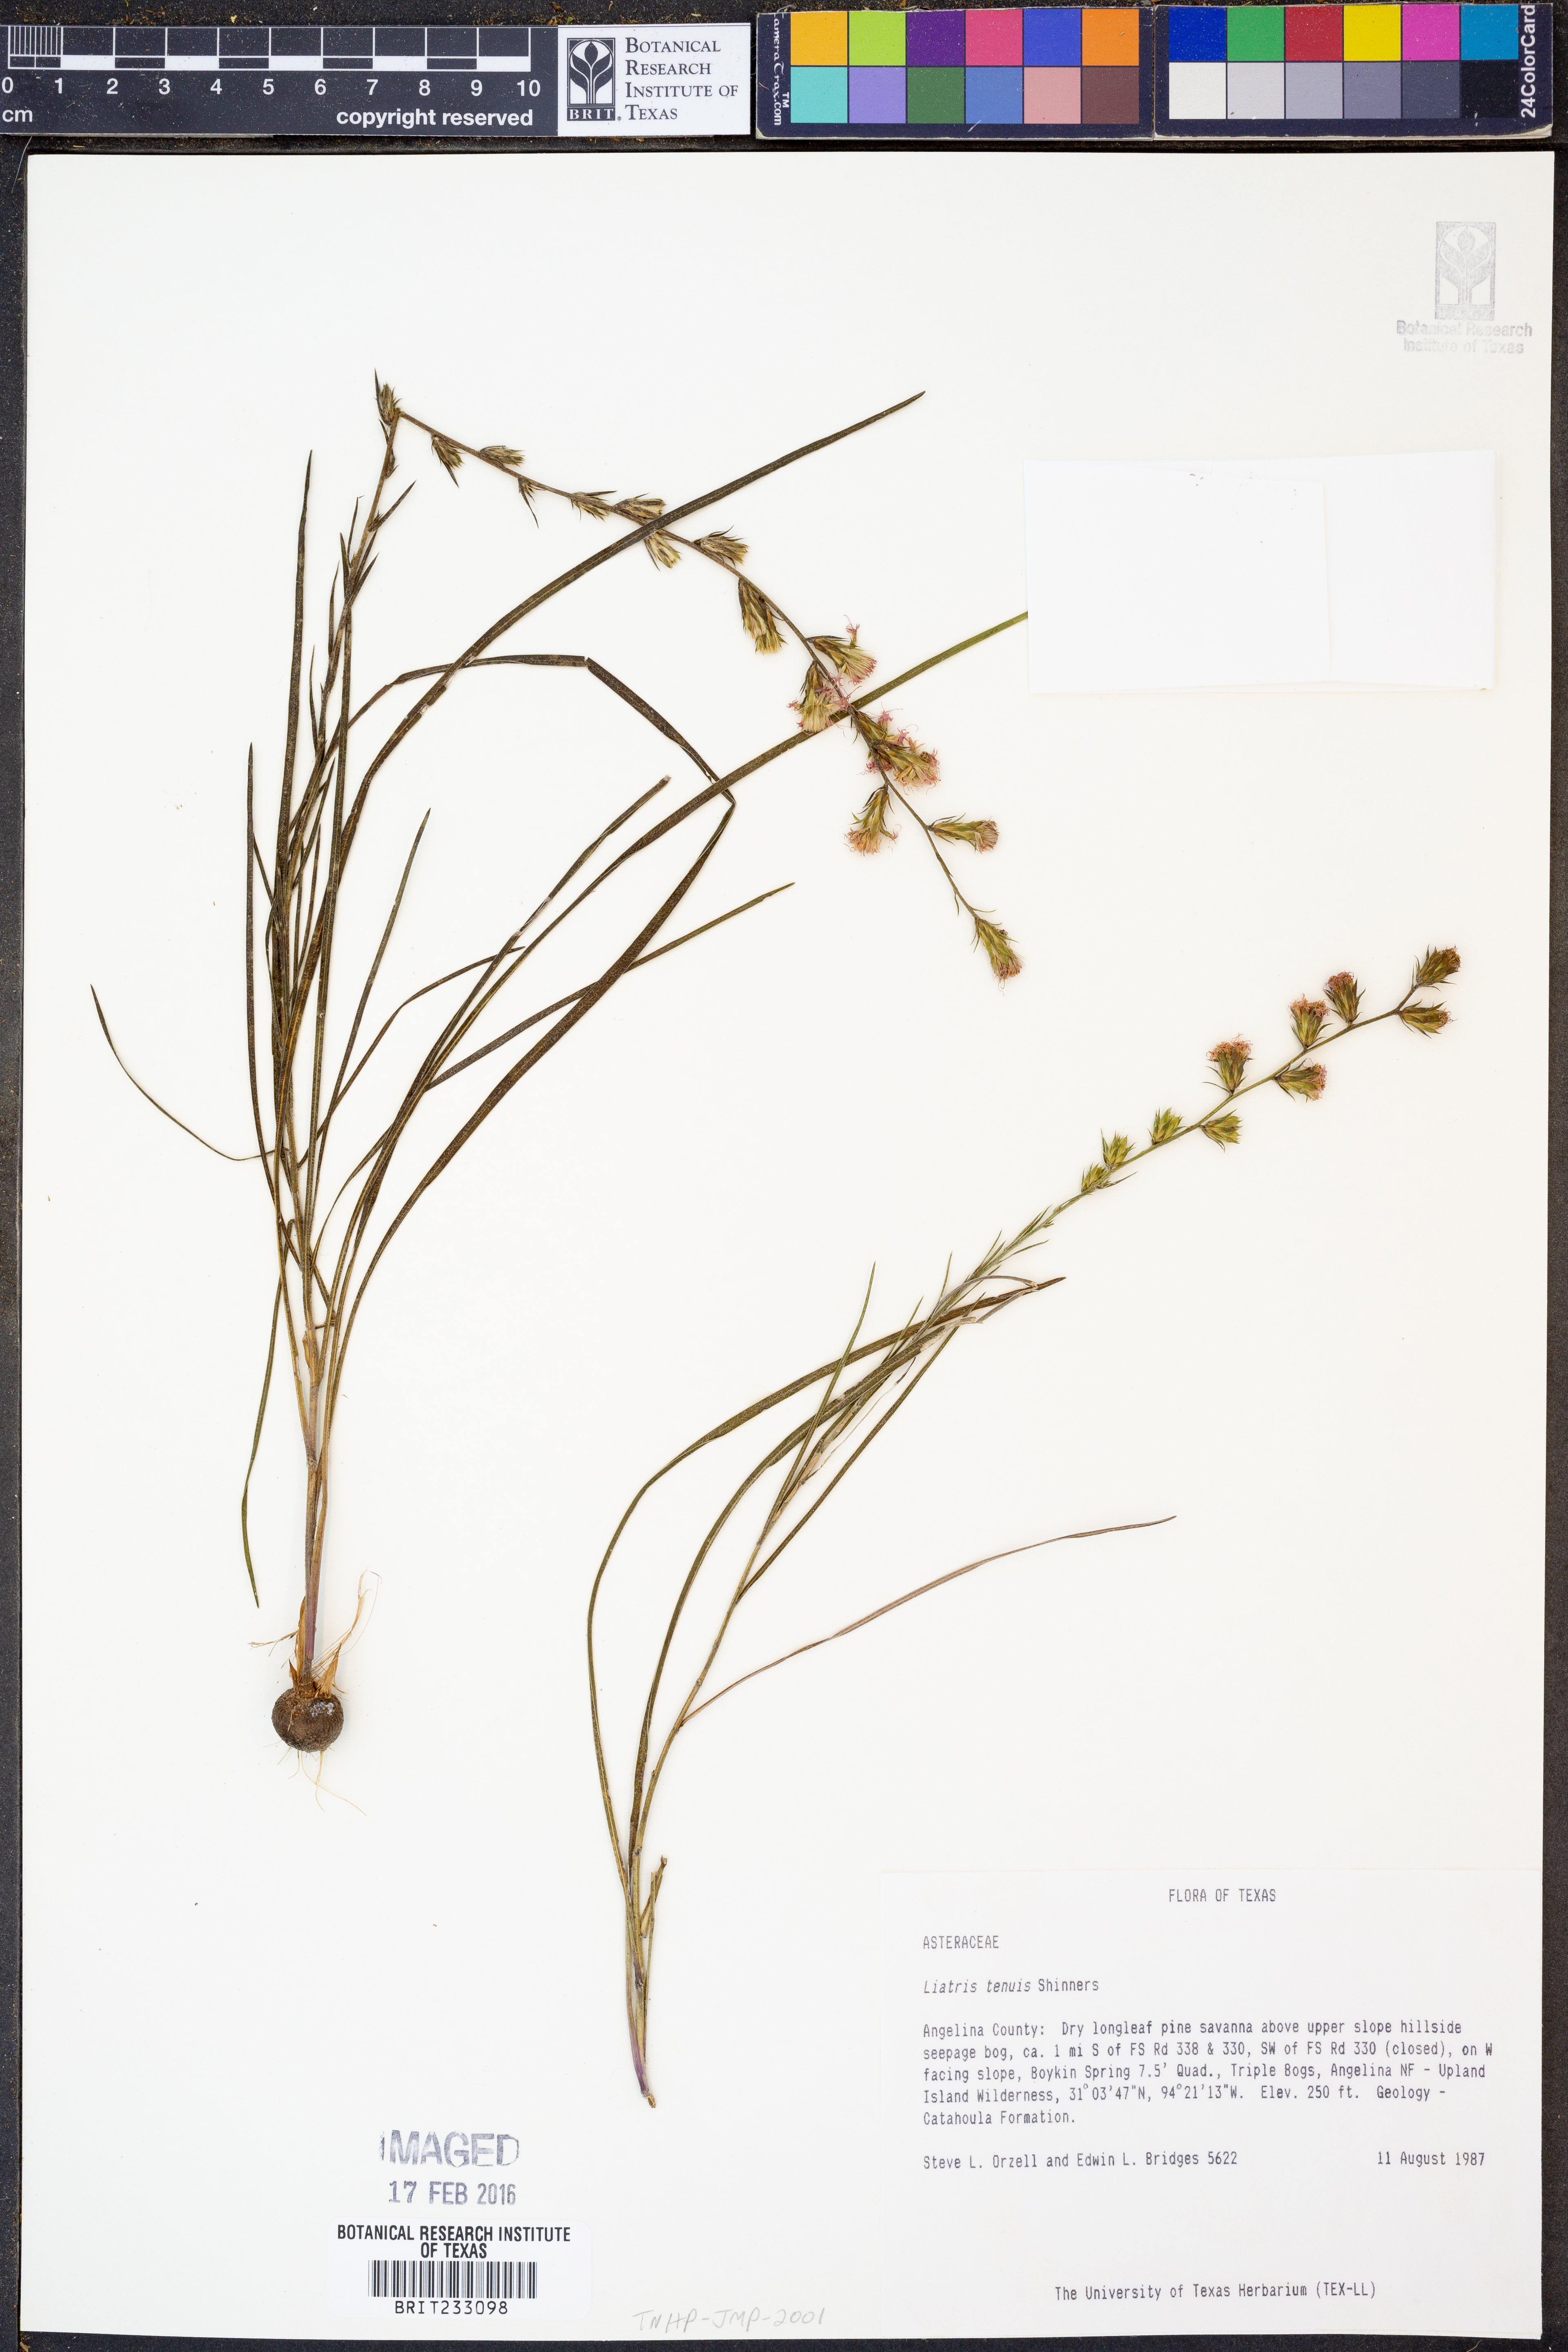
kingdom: Plantae
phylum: Tracheophyta
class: Magnoliopsida
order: Asterales
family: Asteraceae
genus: Liatris
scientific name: Liatris tenuis
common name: Shinner's gayfeather
